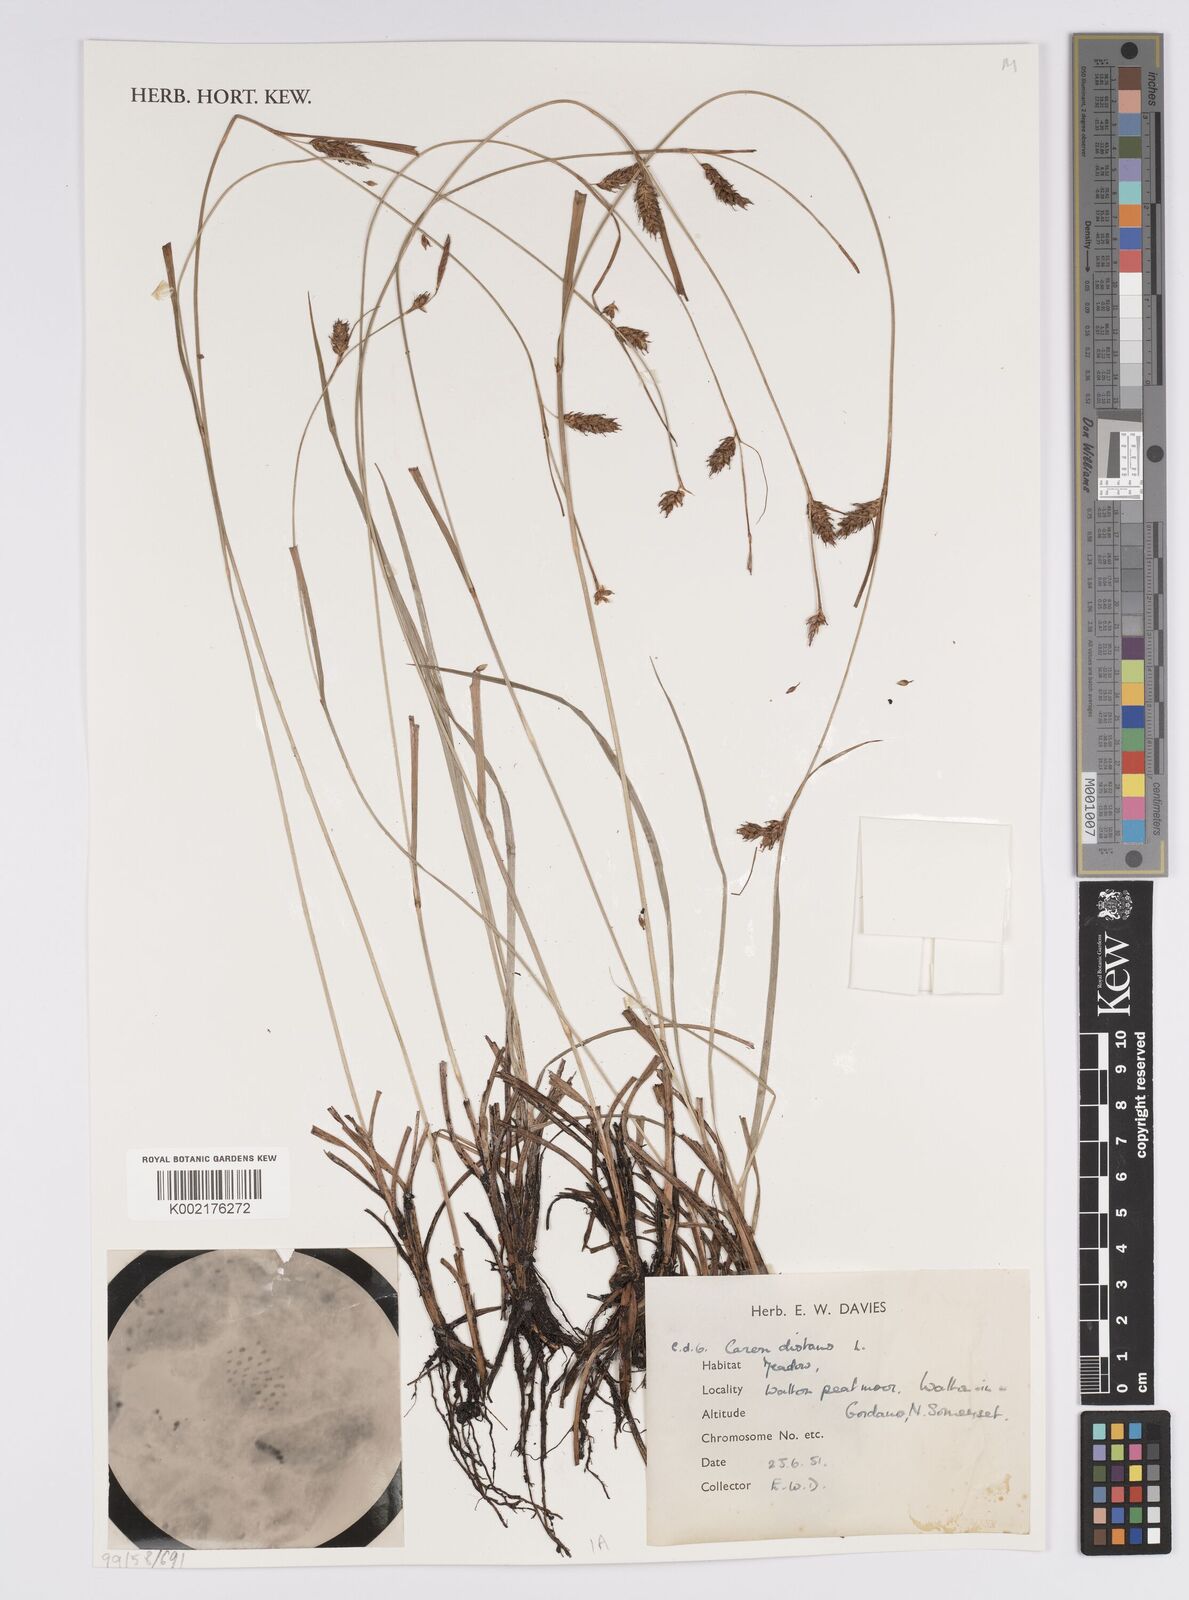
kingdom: Plantae
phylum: Tracheophyta
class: Liliopsida
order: Poales
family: Cyperaceae
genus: Carex
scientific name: Carex distans
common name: Distant sedge
